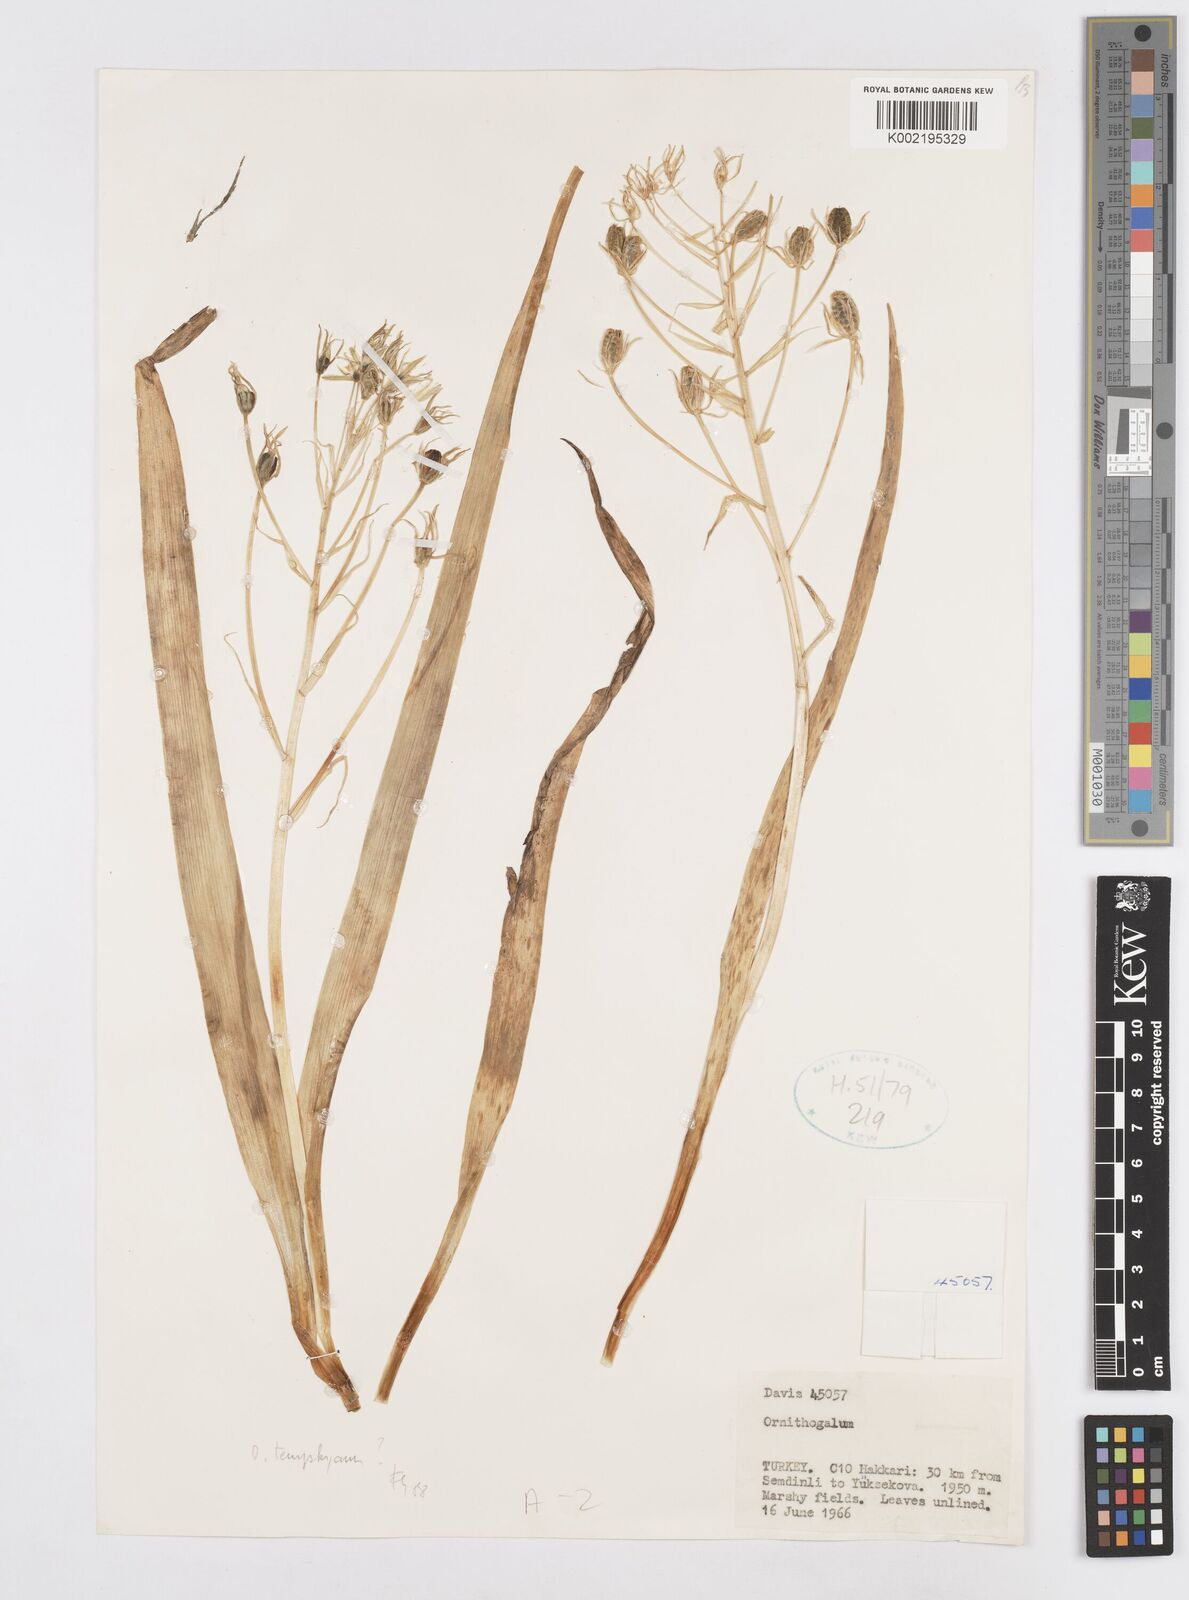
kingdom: Plantae
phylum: Tracheophyta
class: Liliopsida
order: Asparagales
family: Asparagaceae
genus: Ornithogalum
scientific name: Ornithogalum graciliflorum
